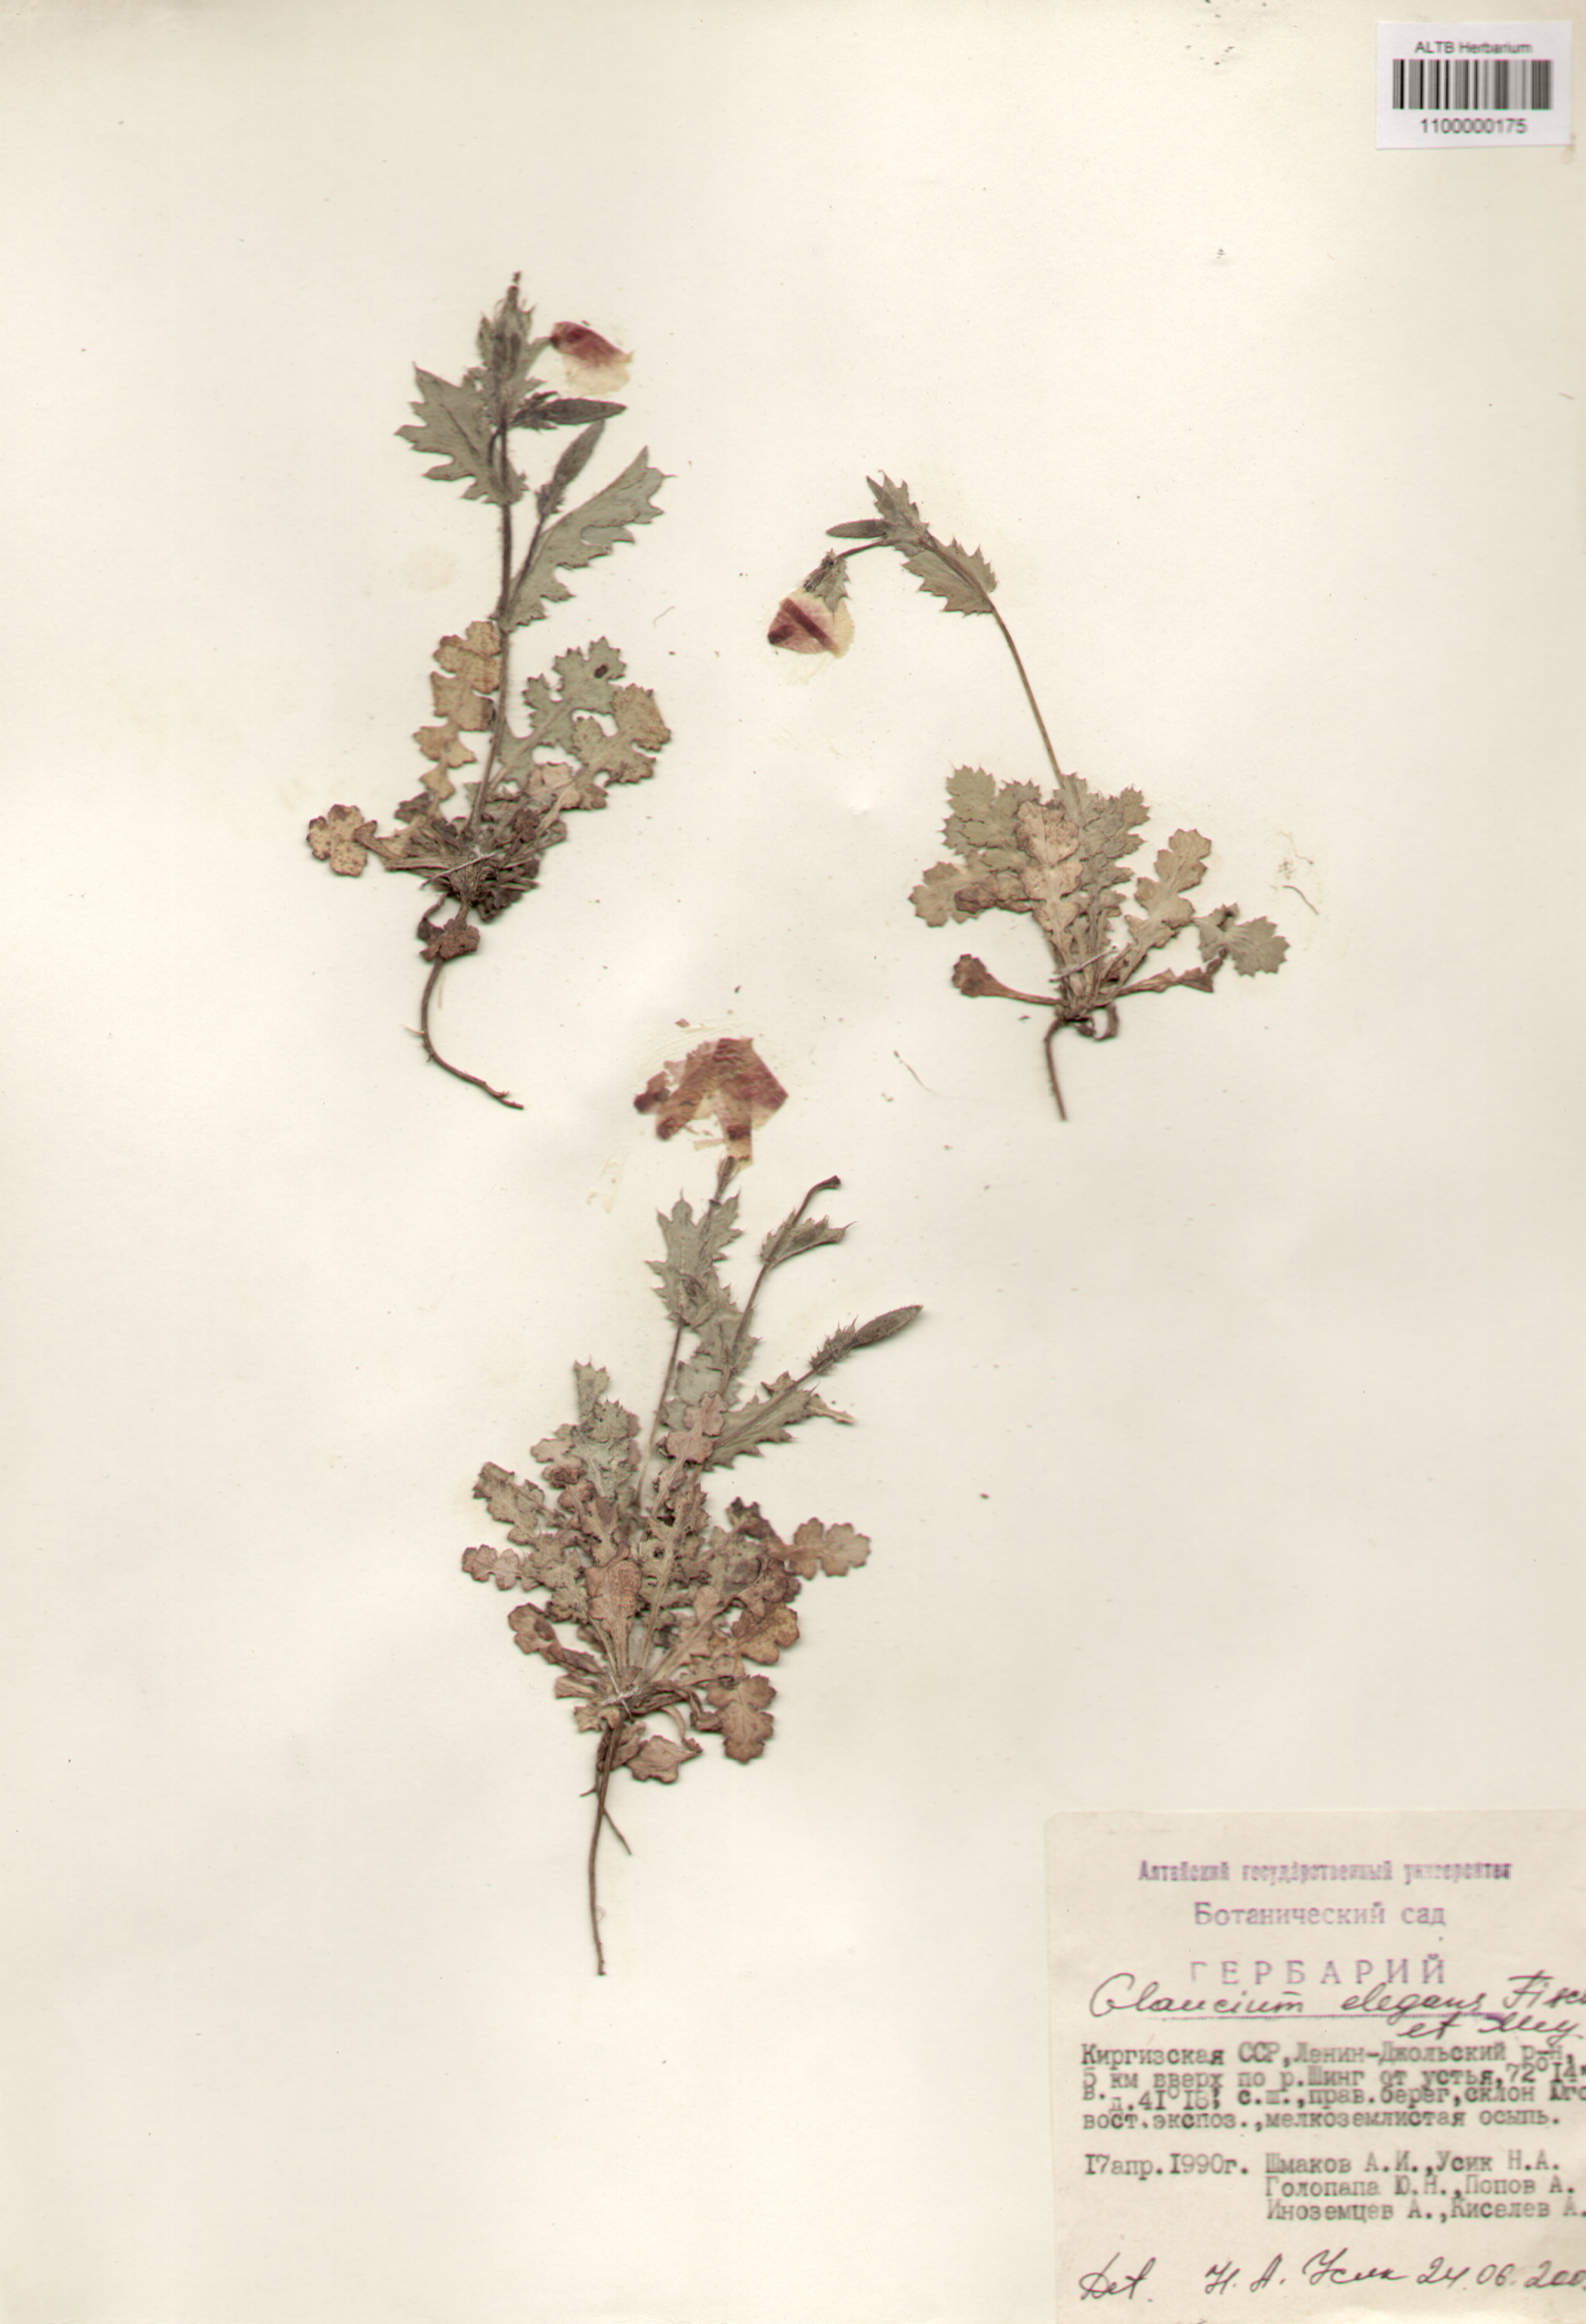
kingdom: Plantae
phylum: Tracheophyta
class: Magnoliopsida
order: Ranunculales
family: Papaveraceae
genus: Glaucium
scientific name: Glaucium elegans
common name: Annual horned-poppy
